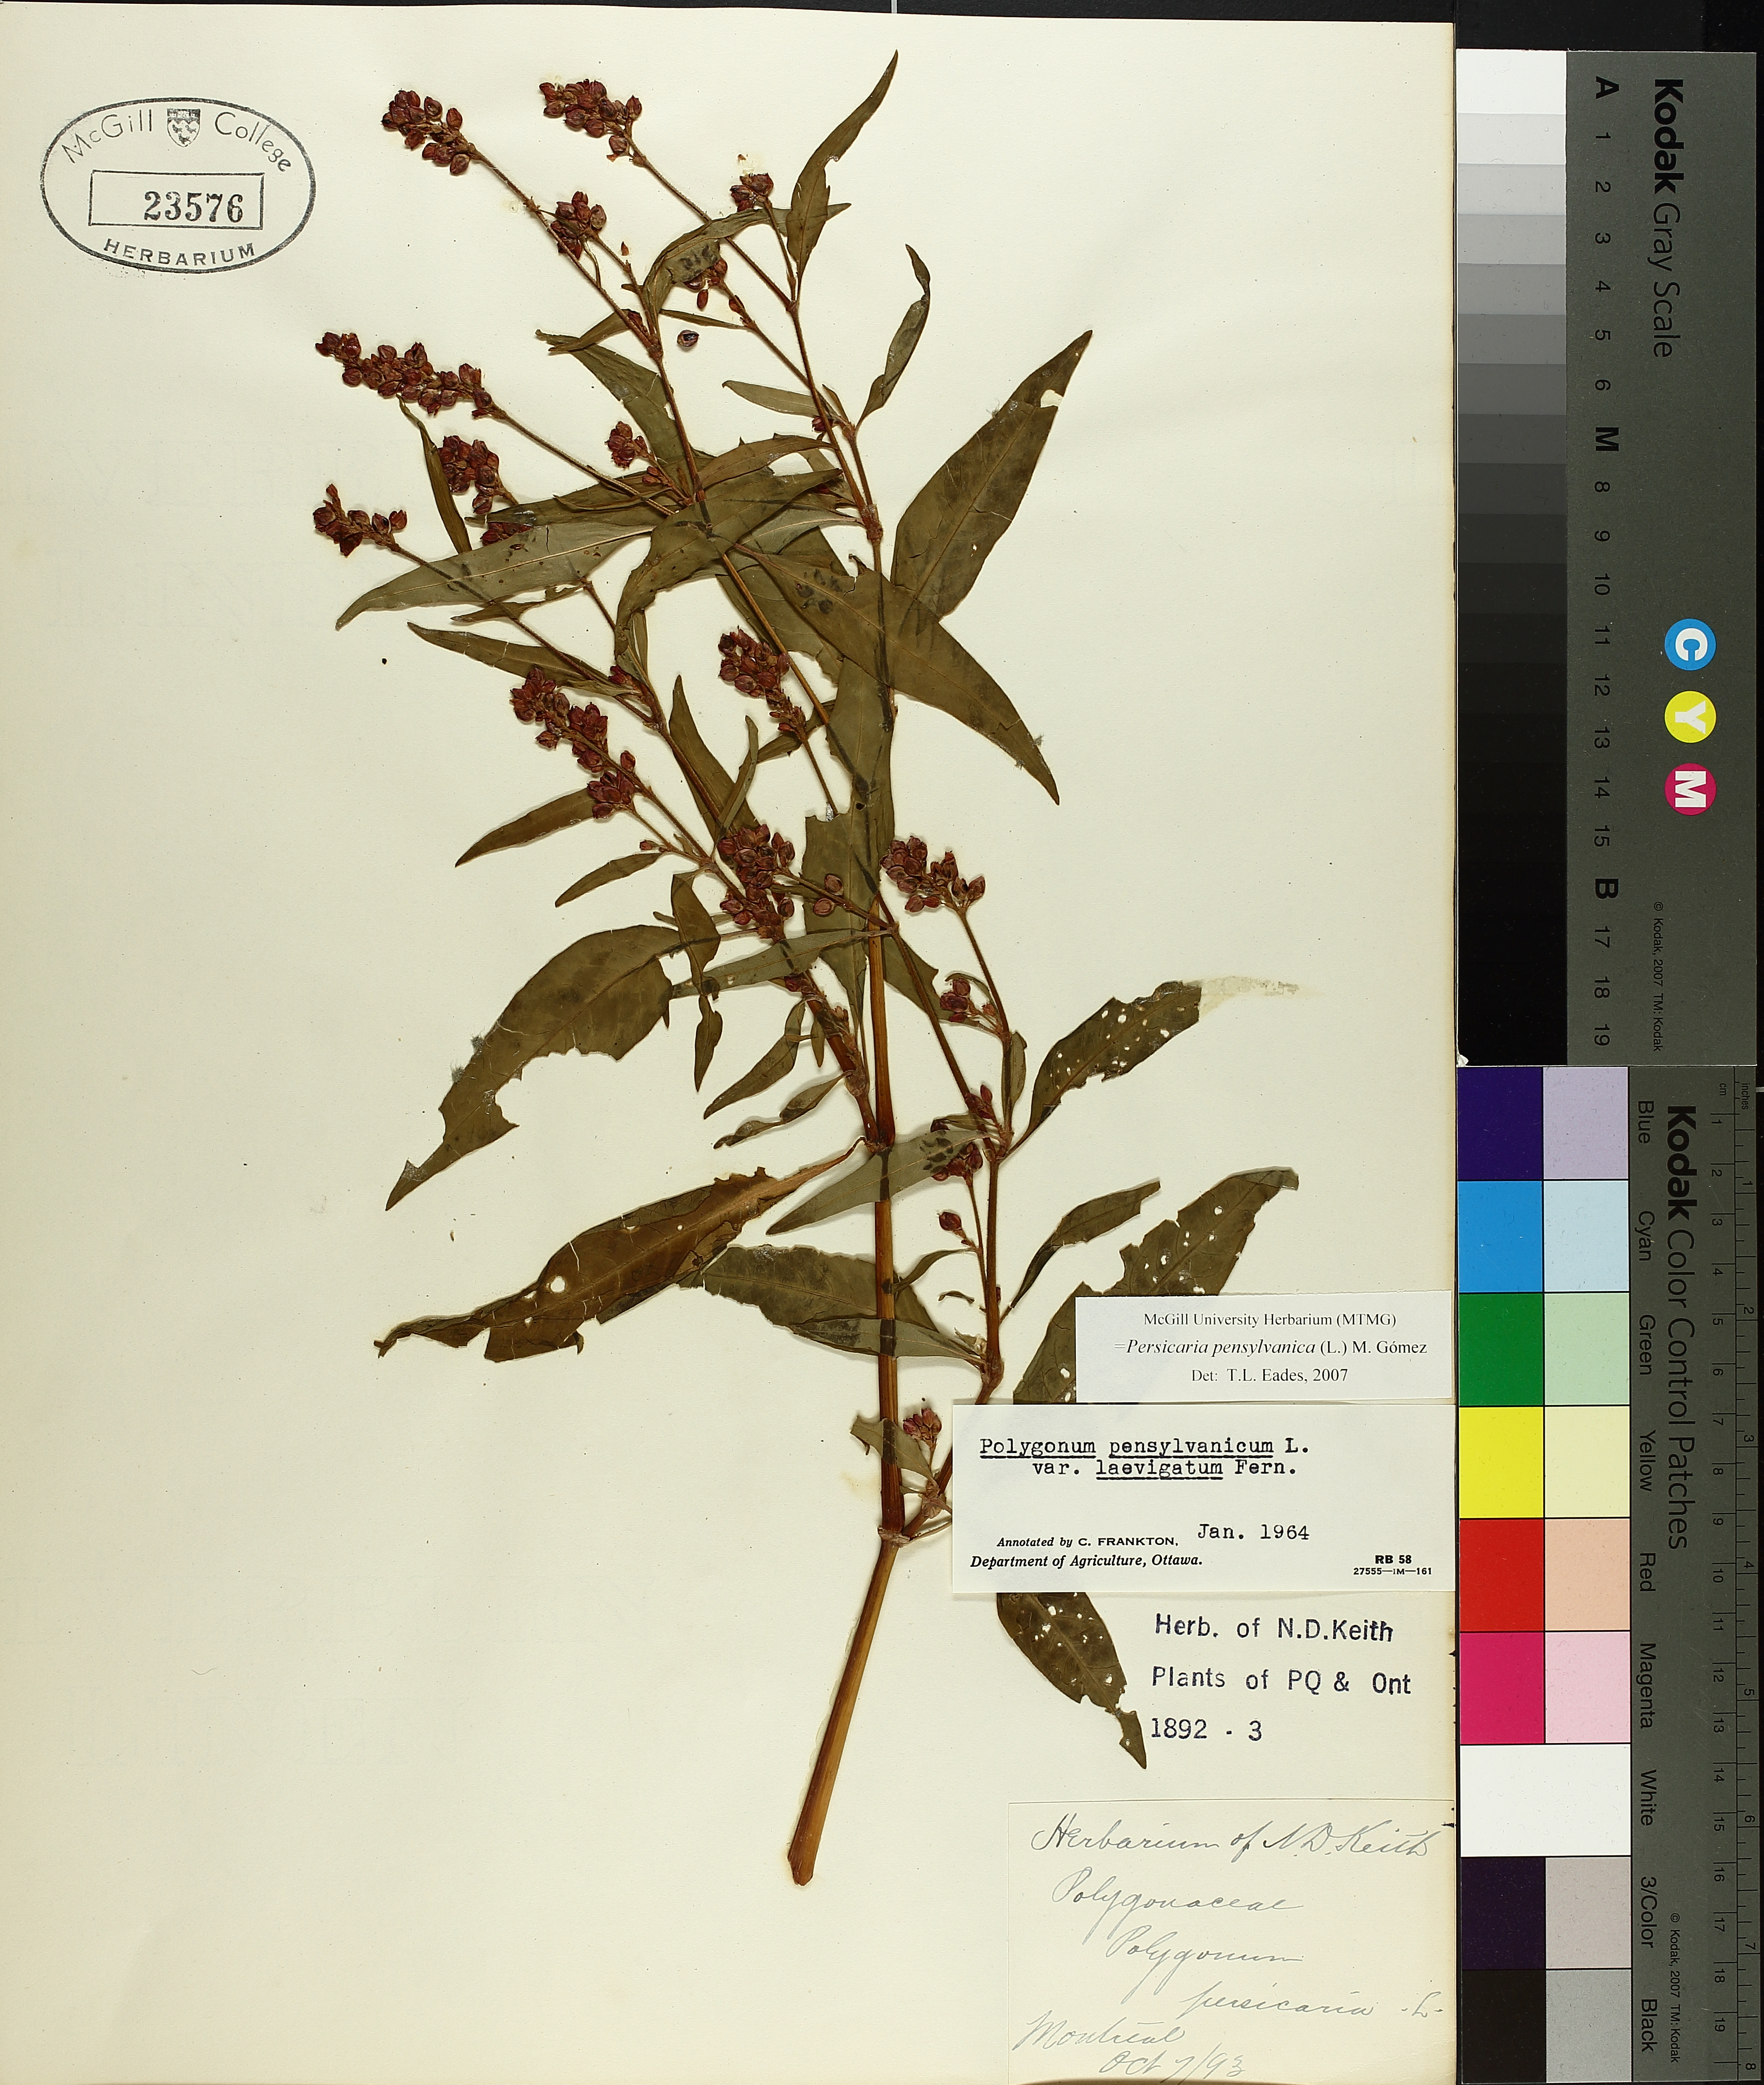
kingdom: Plantae
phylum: Tracheophyta
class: Magnoliopsida
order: Caryophyllales
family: Polygonaceae
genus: Persicaria
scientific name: Persicaria pensylvanica
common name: Pinkweed
